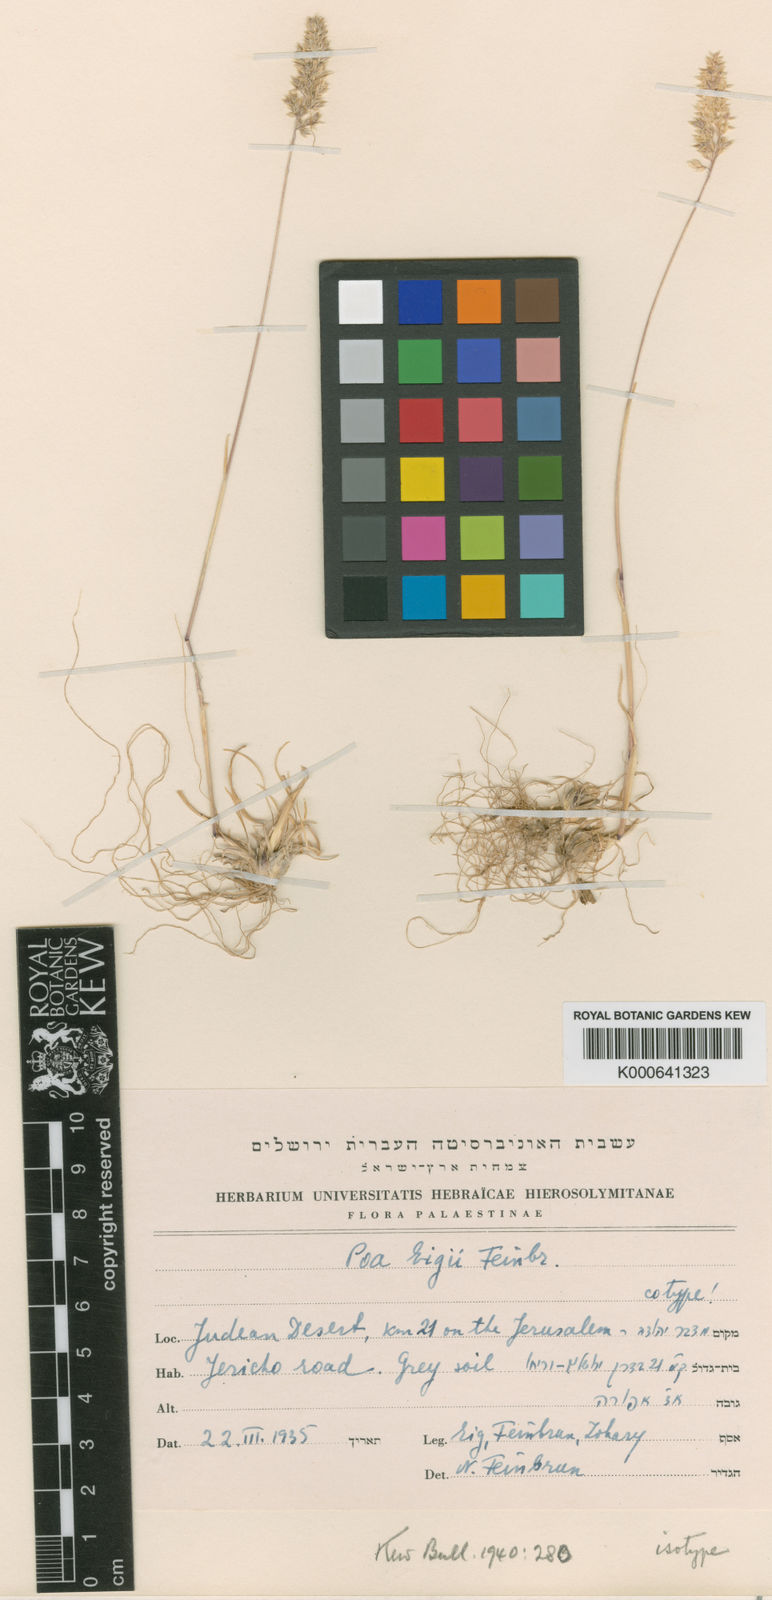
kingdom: Plantae
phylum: Tracheophyta
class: Liliopsida
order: Poales
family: Poaceae
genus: Poa
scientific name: Poa bulbosa
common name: Bulbous bluegrass
